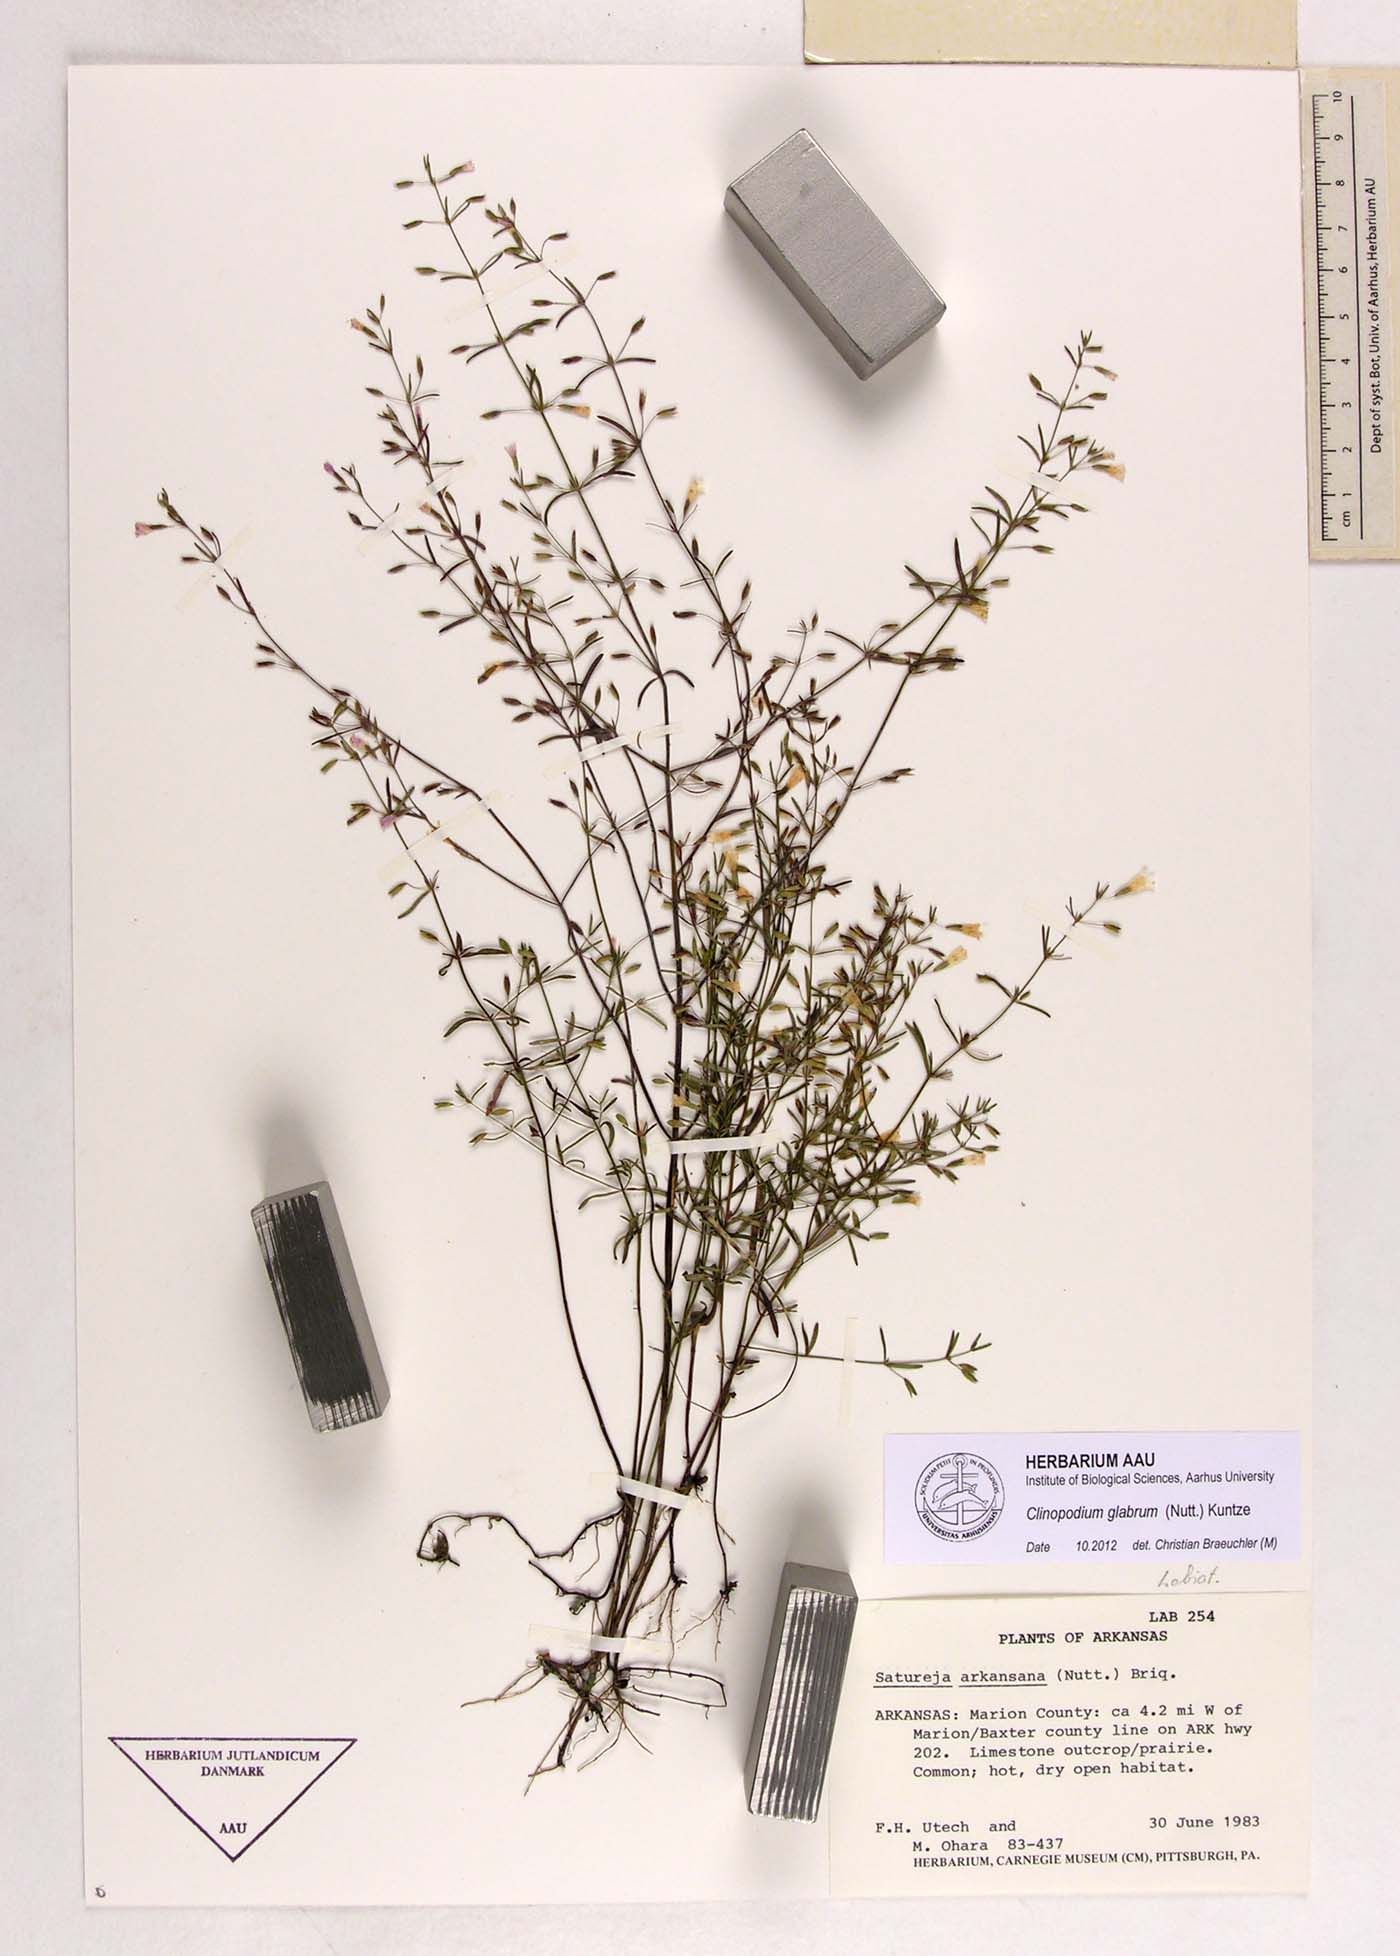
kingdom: Plantae
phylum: Tracheophyta
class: Magnoliopsida
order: Lamiales
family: Lamiaceae
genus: Hedeoma
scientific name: Hedeoma glabra
